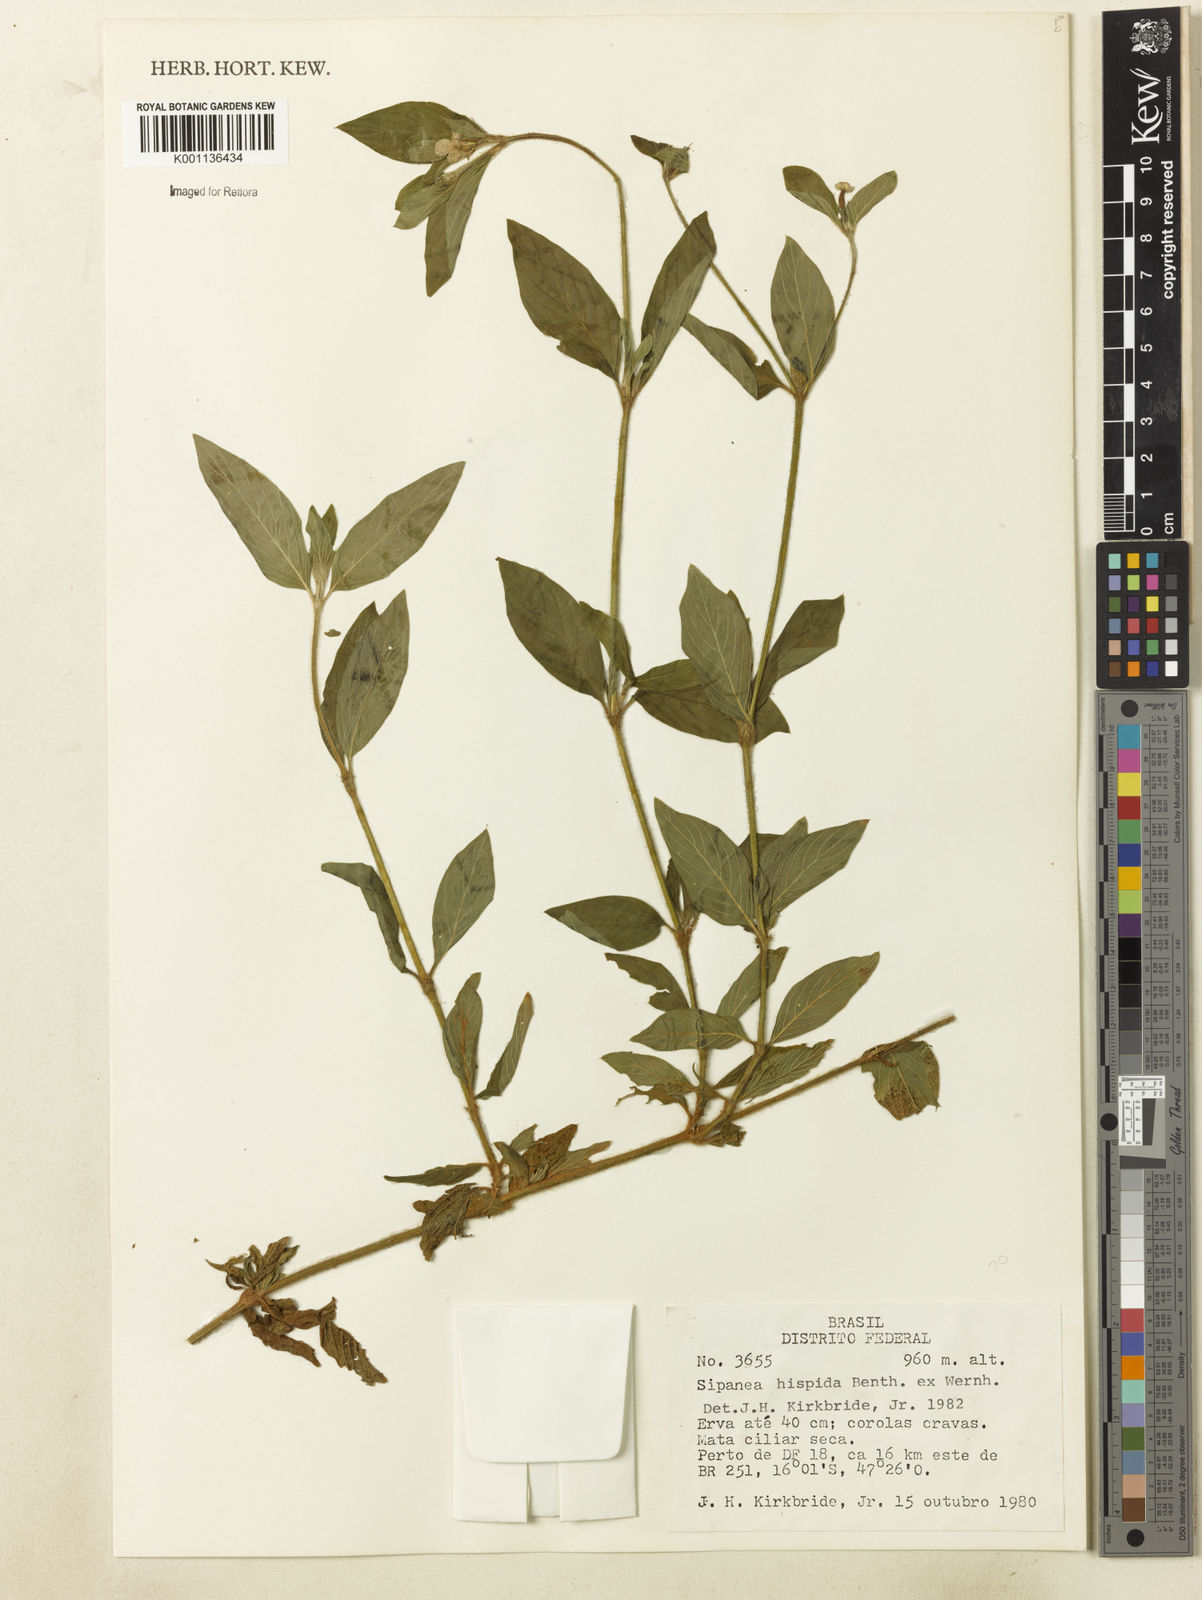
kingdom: Plantae
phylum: Tracheophyta
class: Magnoliopsida
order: Gentianales
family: Rubiaceae
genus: Sipanea
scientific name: Sipanea hispida
